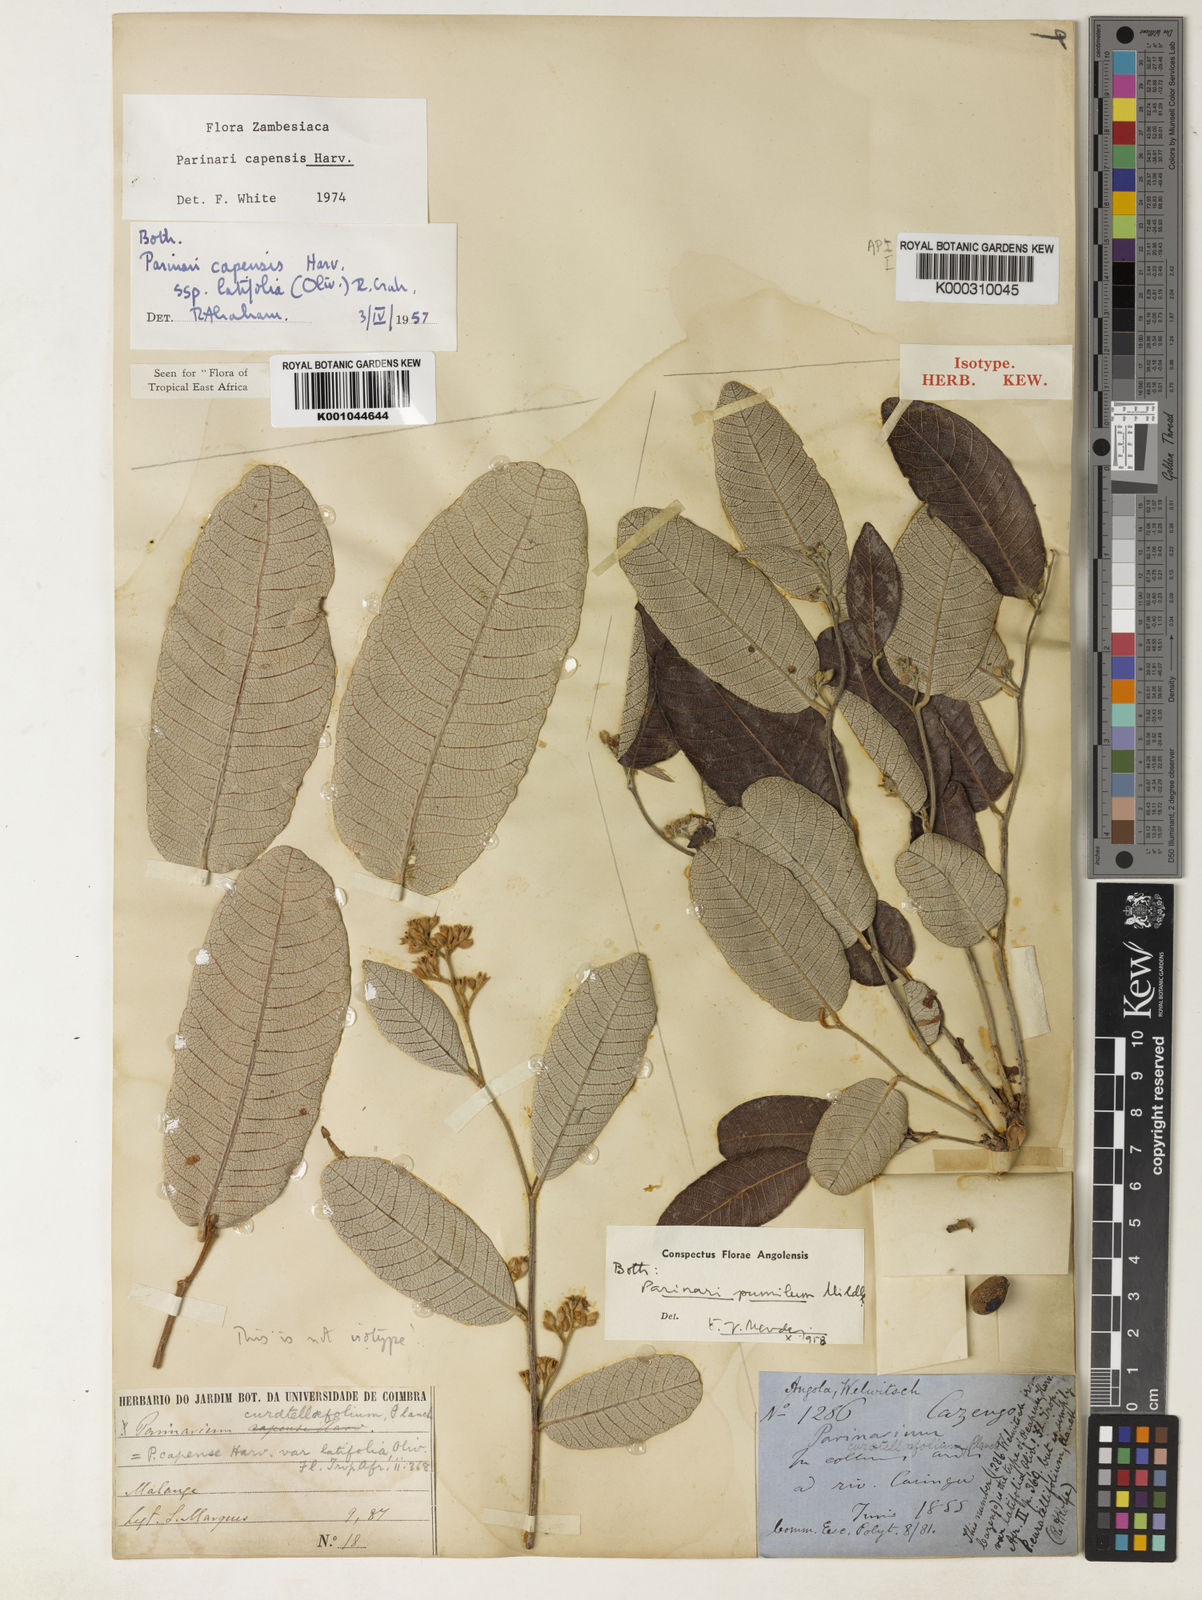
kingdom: Plantae
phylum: Tracheophyta
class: Magnoliopsida
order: Malpighiales
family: Chrysobalanaceae
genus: Parinari
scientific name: Parinari capensis
